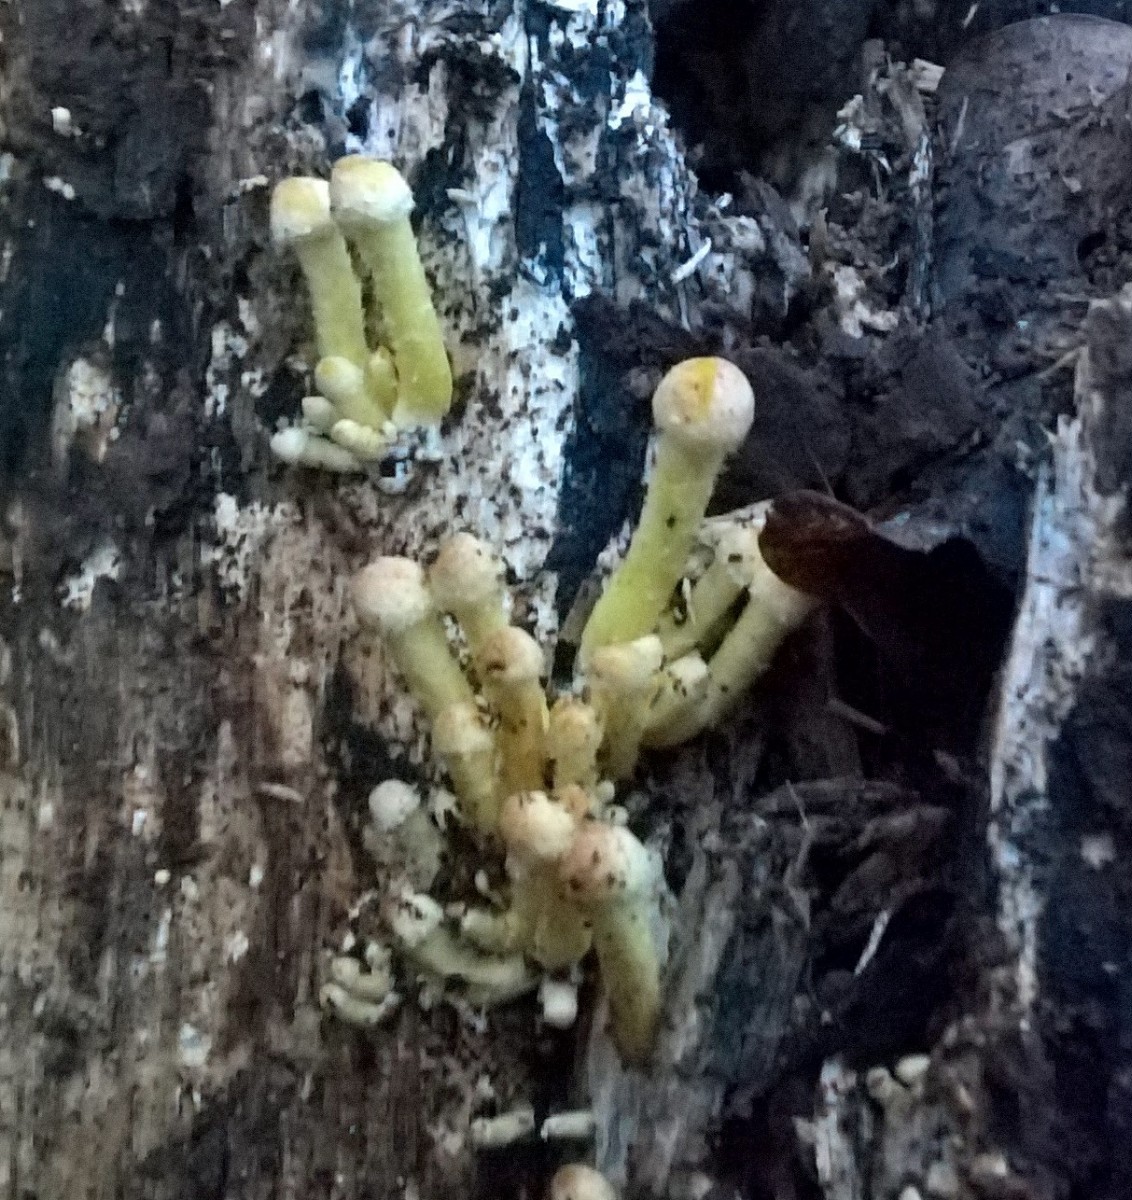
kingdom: Fungi
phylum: Basidiomycota
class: Agaricomycetes
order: Agaricales
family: Strophariaceae
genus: Hypholoma
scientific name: Hypholoma fasciculare
